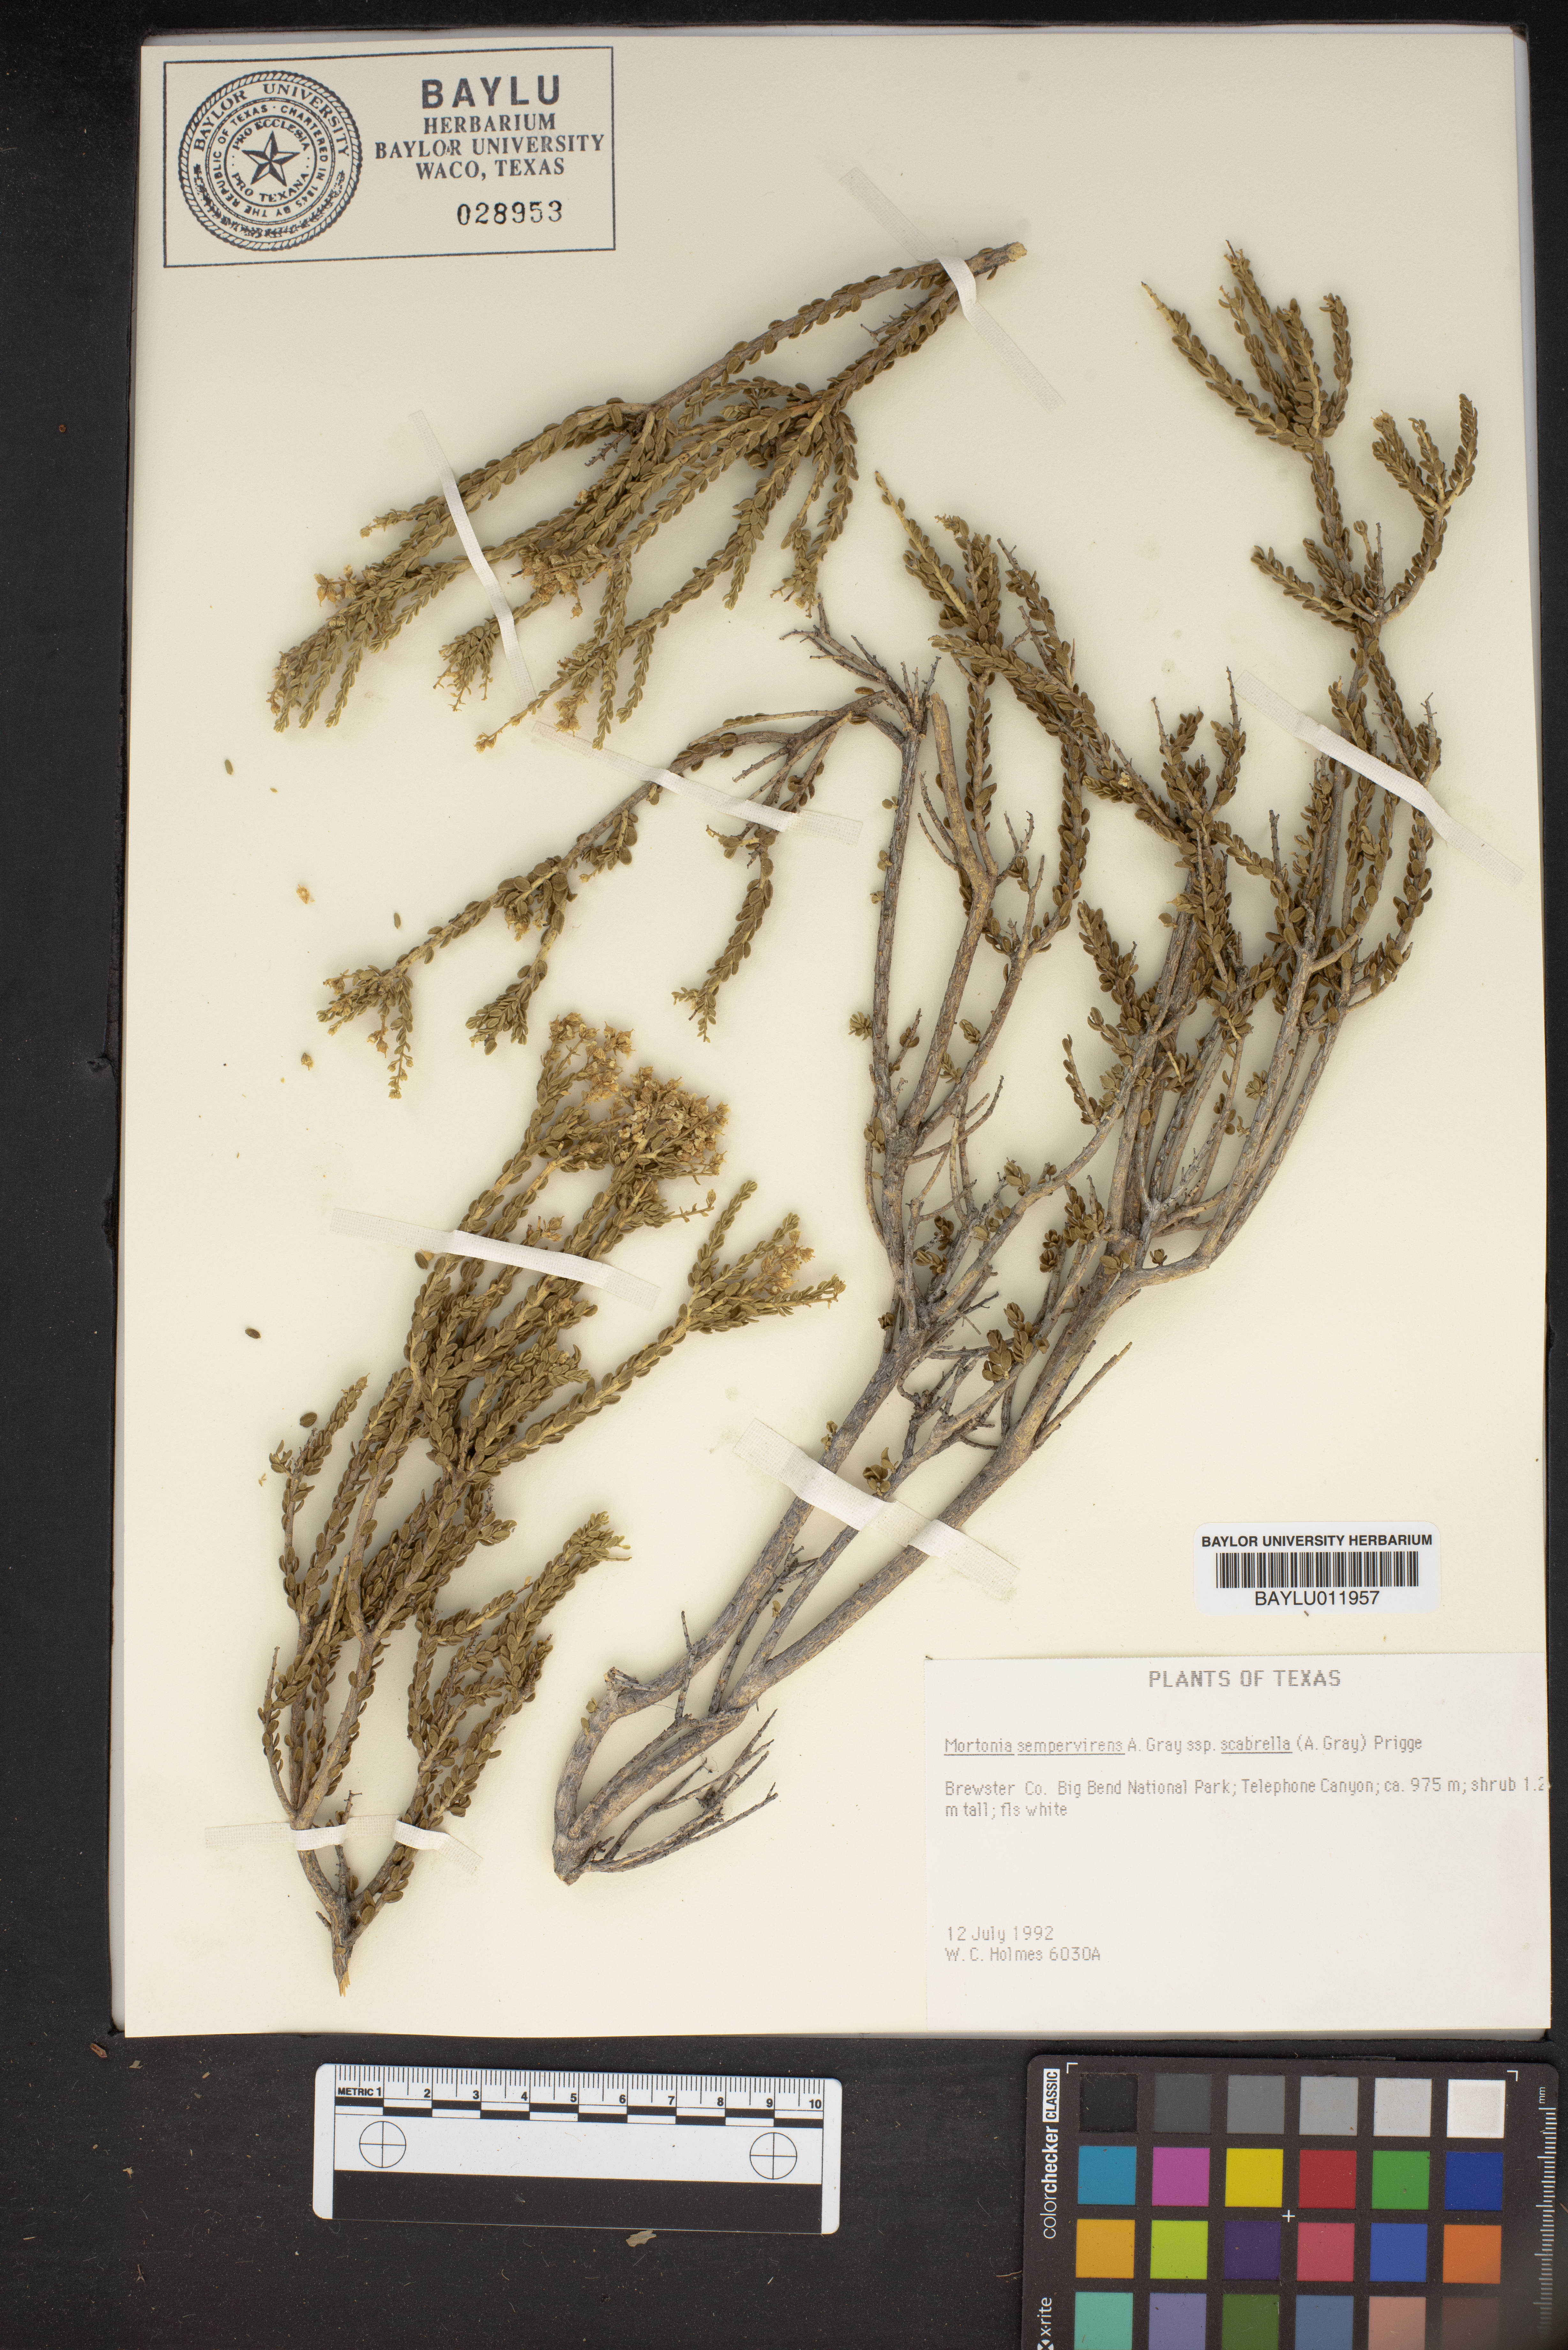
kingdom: Plantae
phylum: Tracheophyta
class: Magnoliopsida
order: Celastrales
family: Celastraceae
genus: Mortonia
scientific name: Mortonia scabrella
